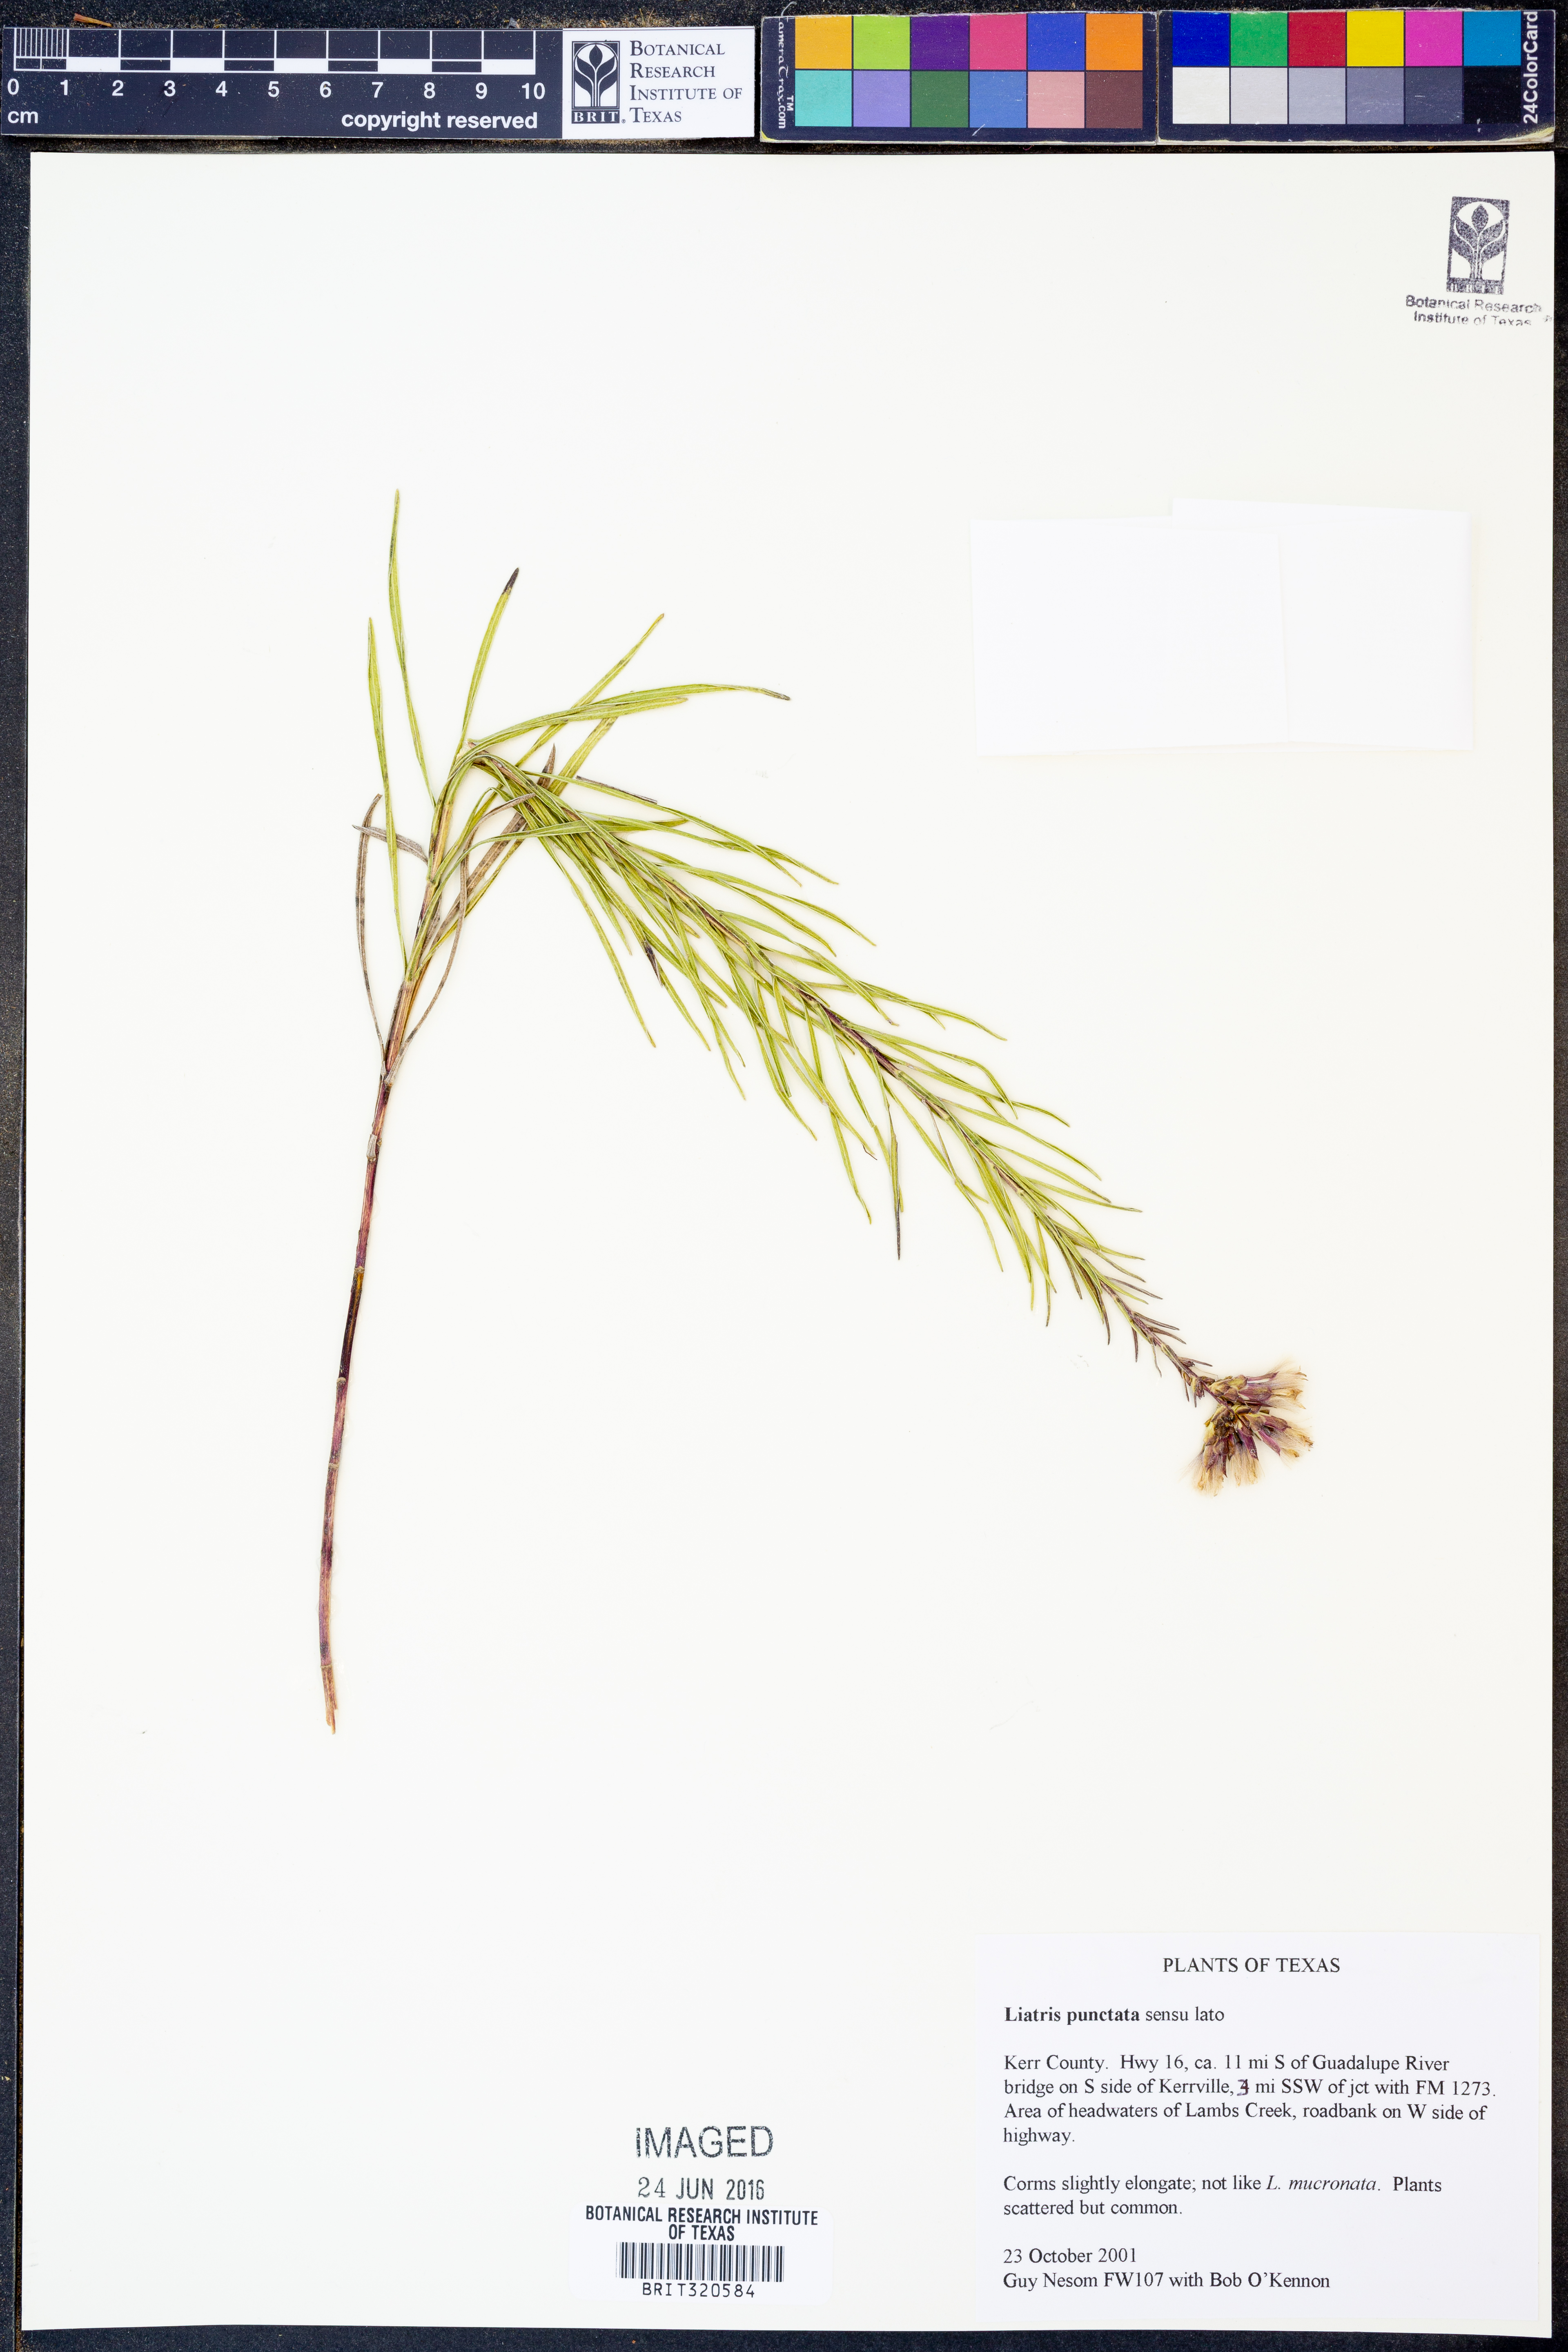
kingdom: Plantae
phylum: Tracheophyta
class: Magnoliopsida
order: Asterales
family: Asteraceae
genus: Liatris
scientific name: Liatris punctata
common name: Dotted gayfeather
